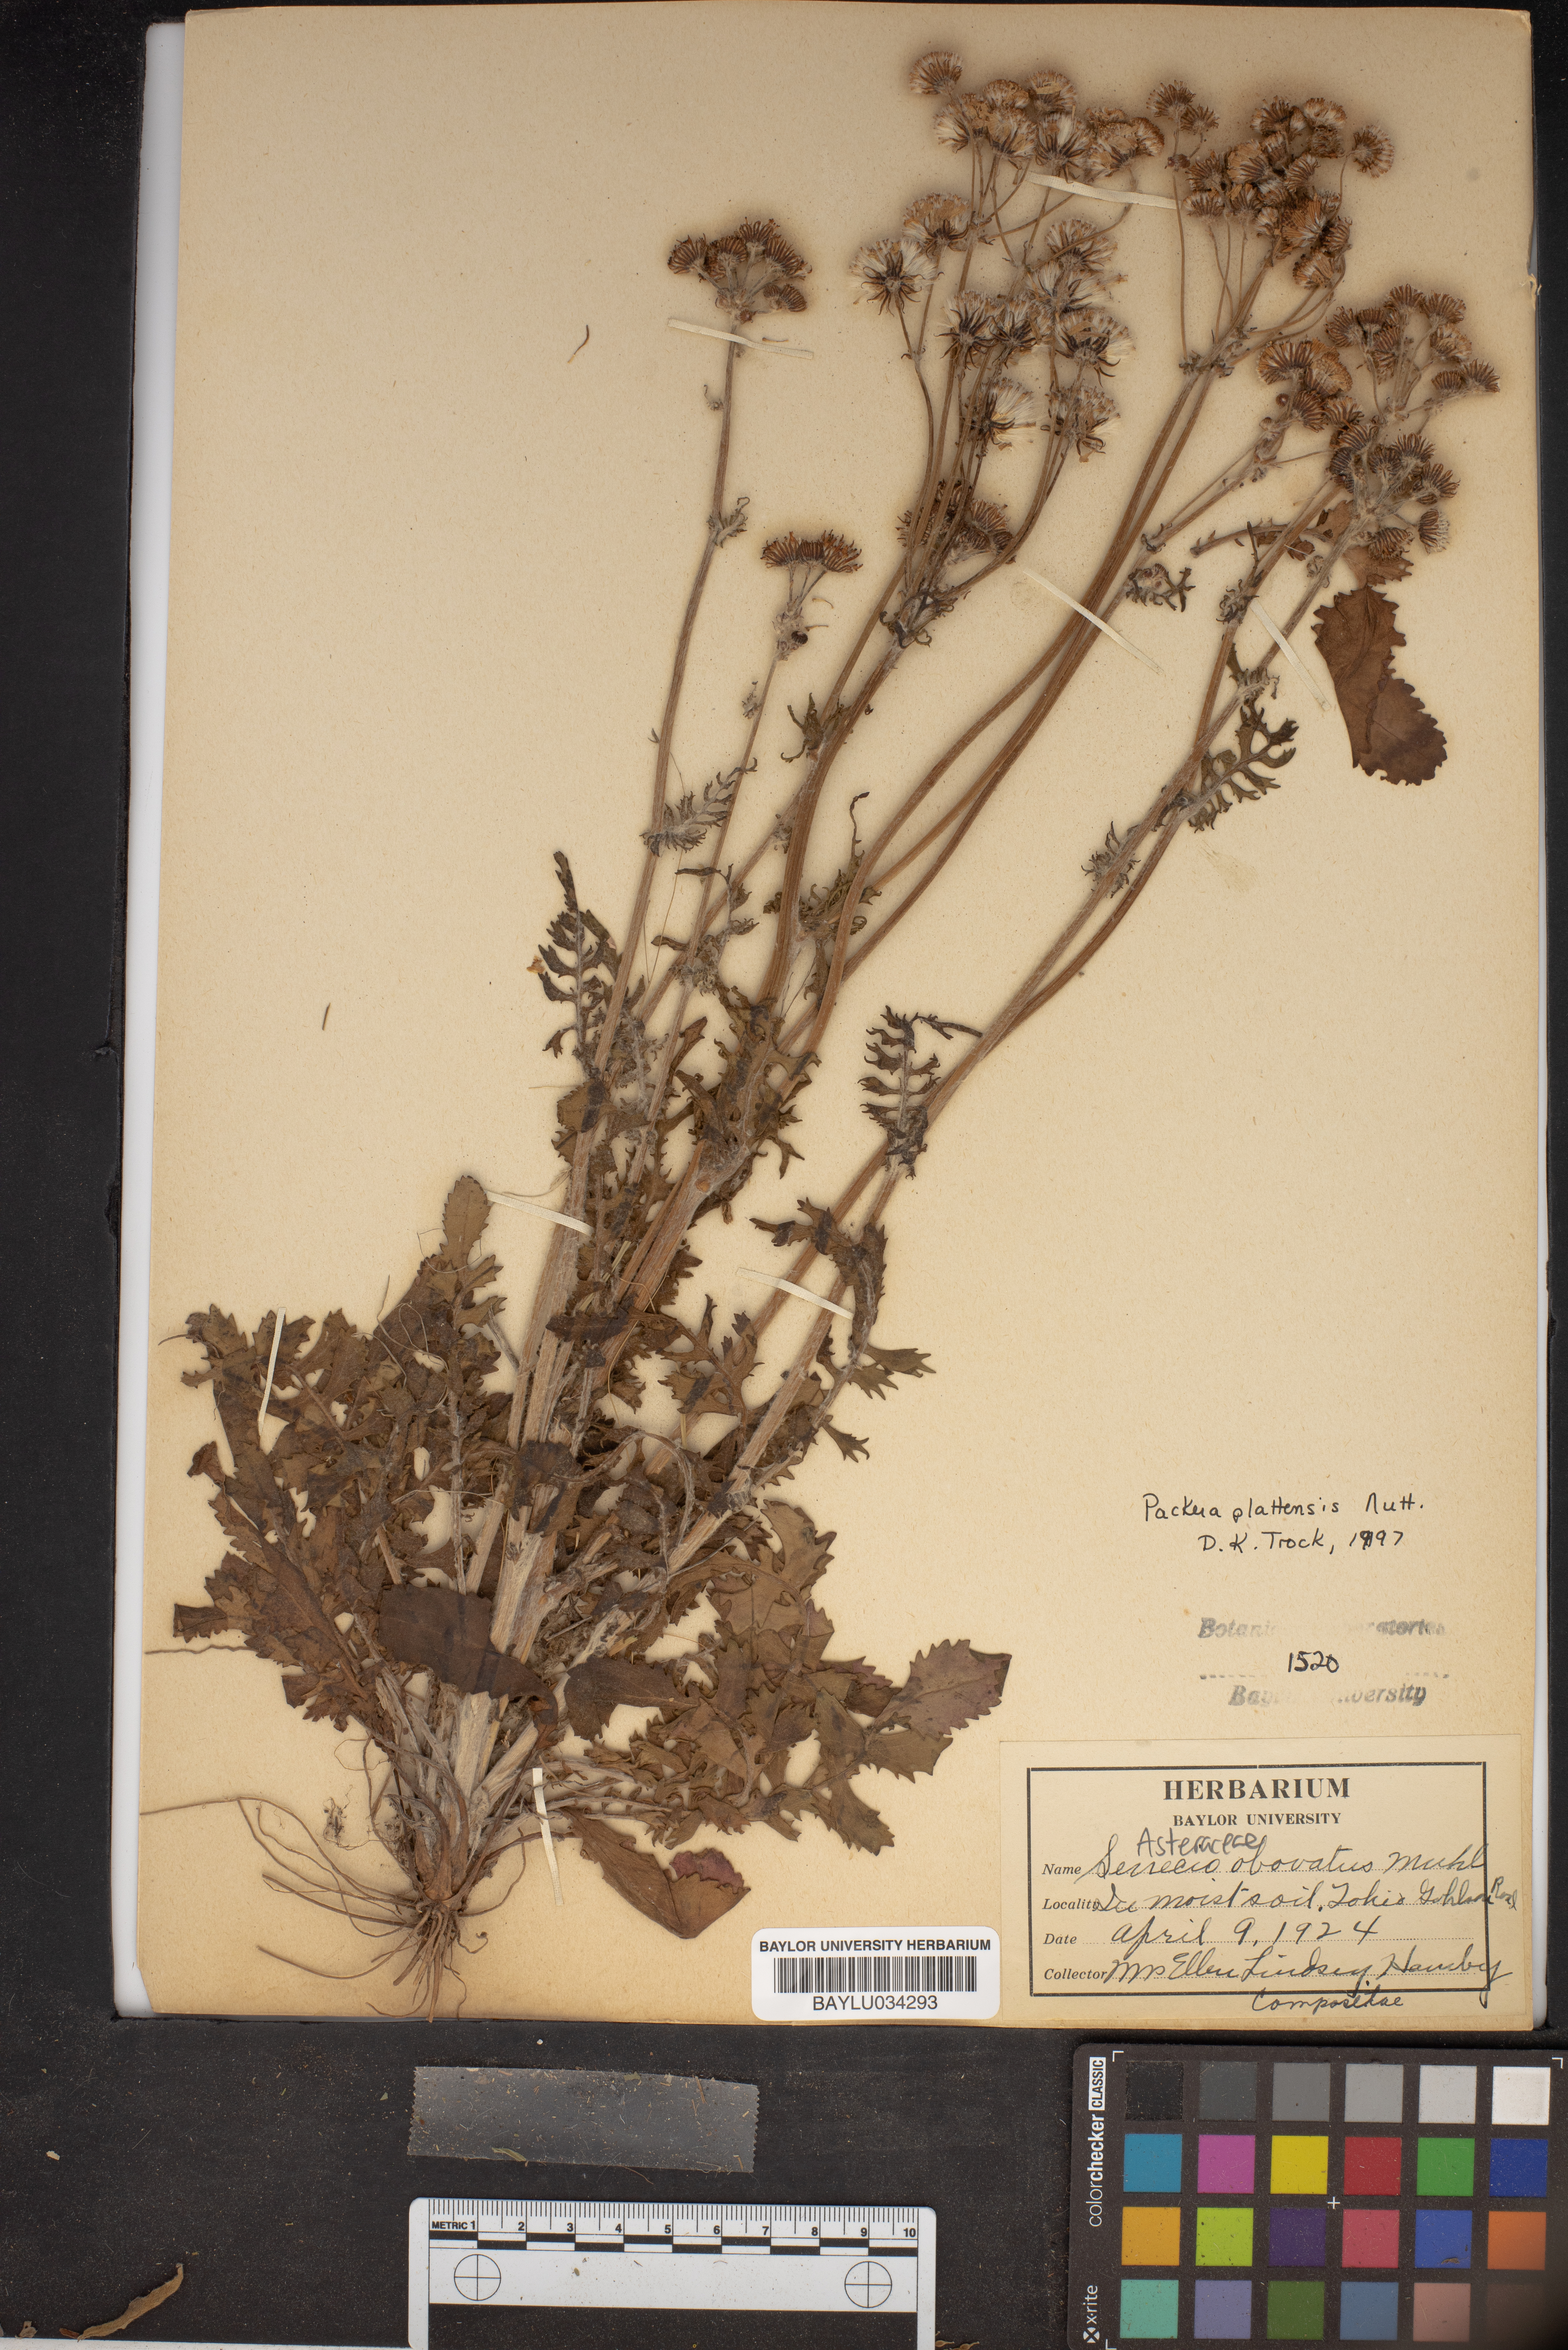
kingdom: Plantae
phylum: Tracheophyta
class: Magnoliopsida
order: Asterales
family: Asteraceae
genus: Senecio
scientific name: Senecio provincialis
